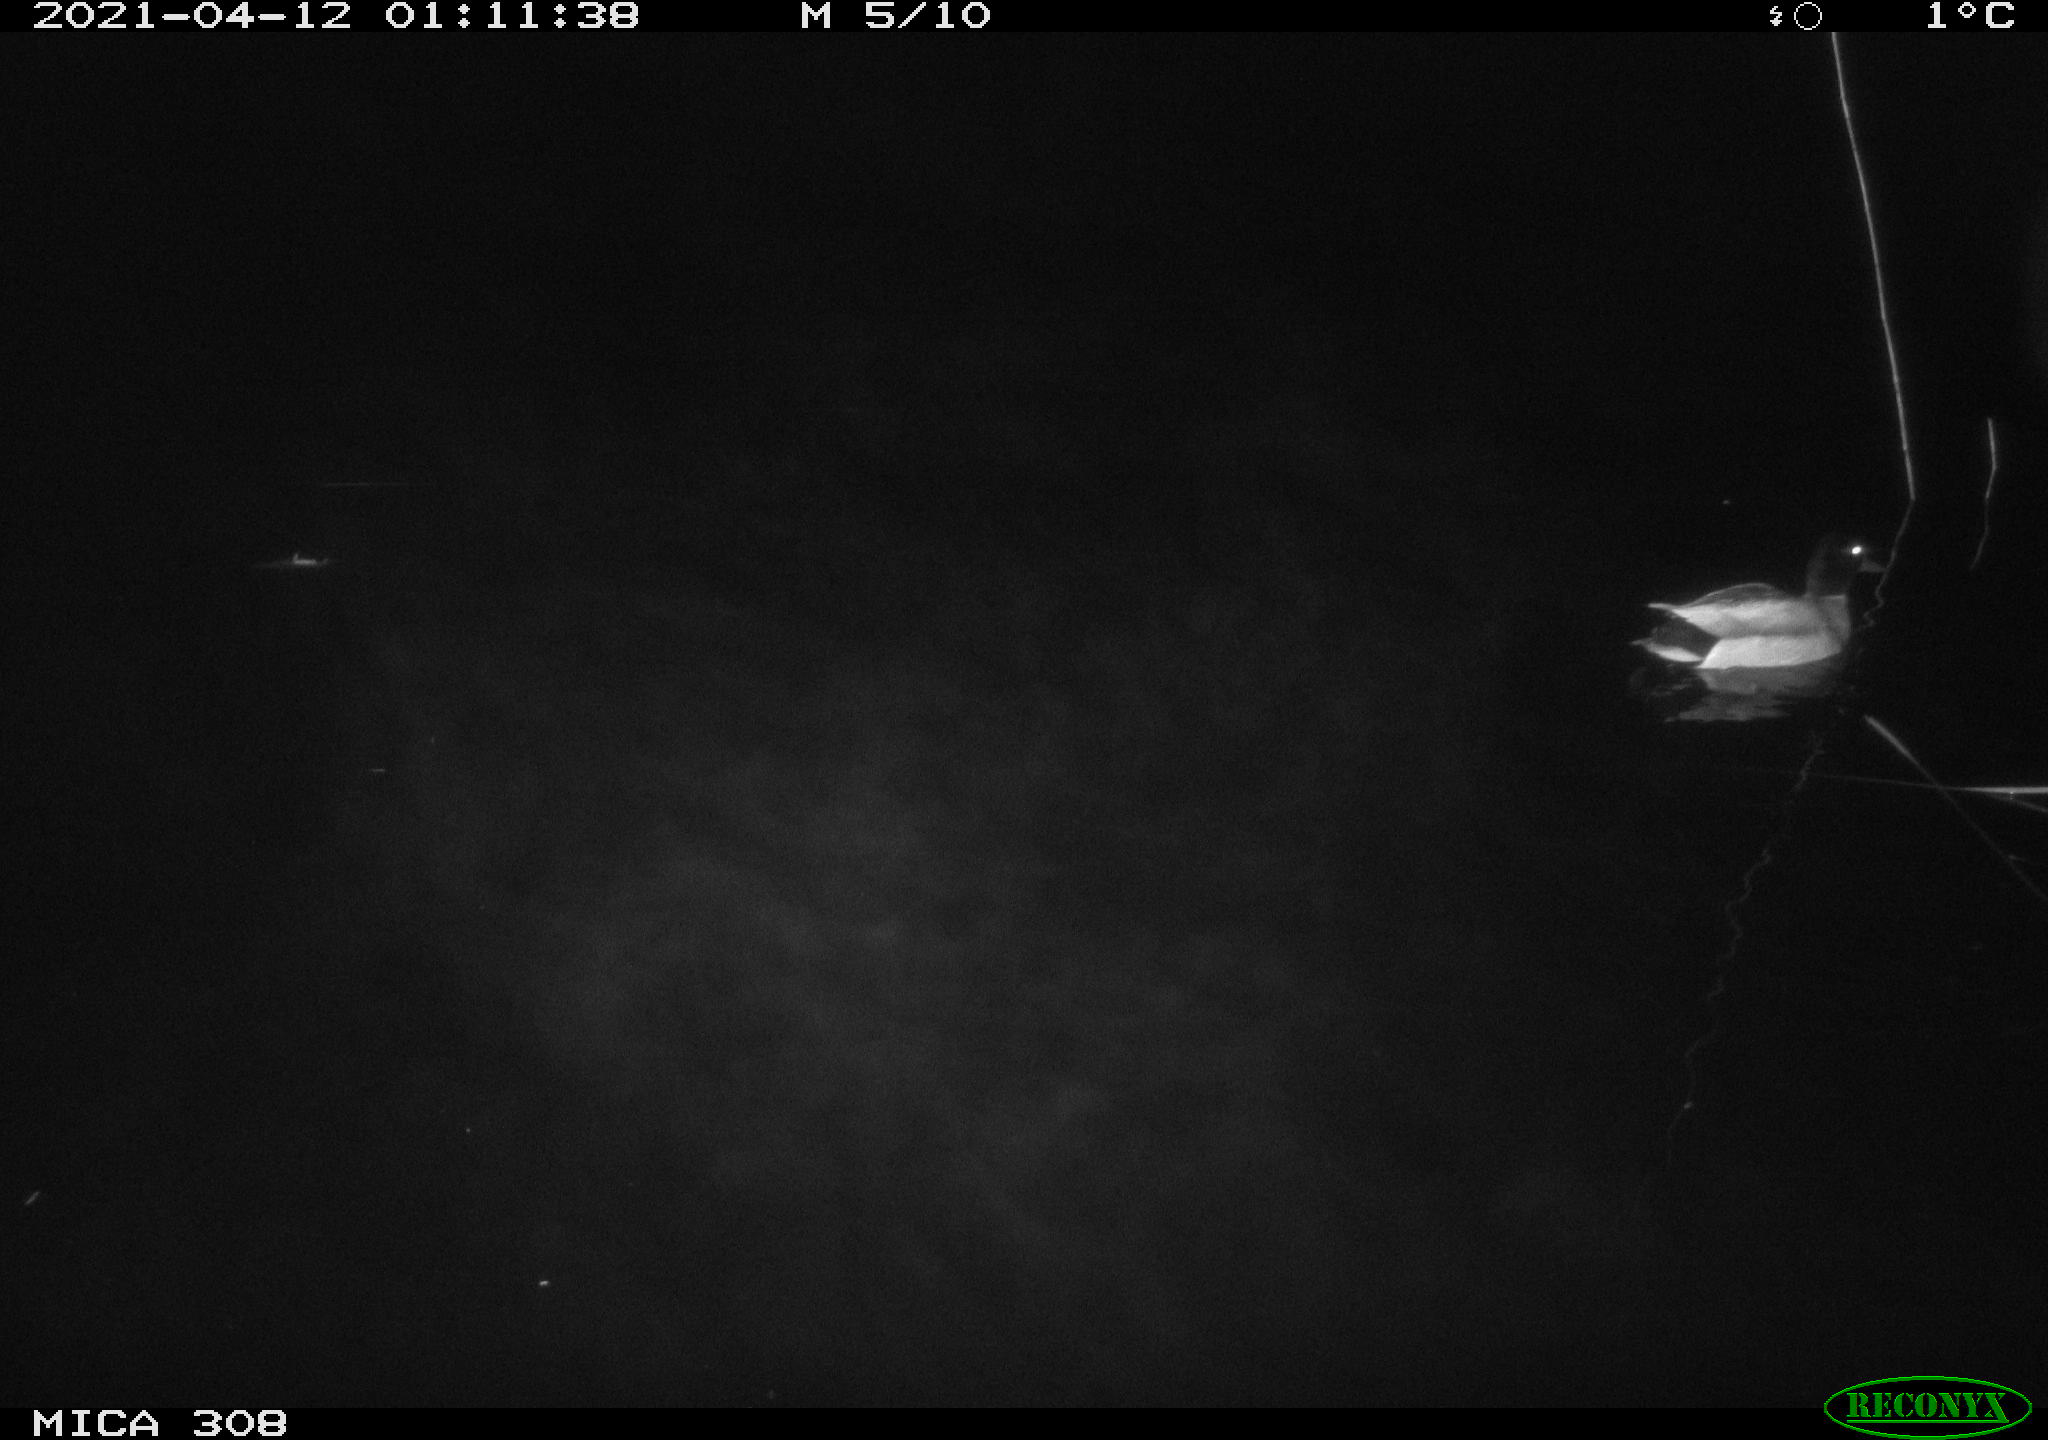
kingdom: Animalia
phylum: Chordata
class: Aves
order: Anseriformes
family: Anatidae
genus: Anas
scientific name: Anas platyrhynchos
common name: Mallard
